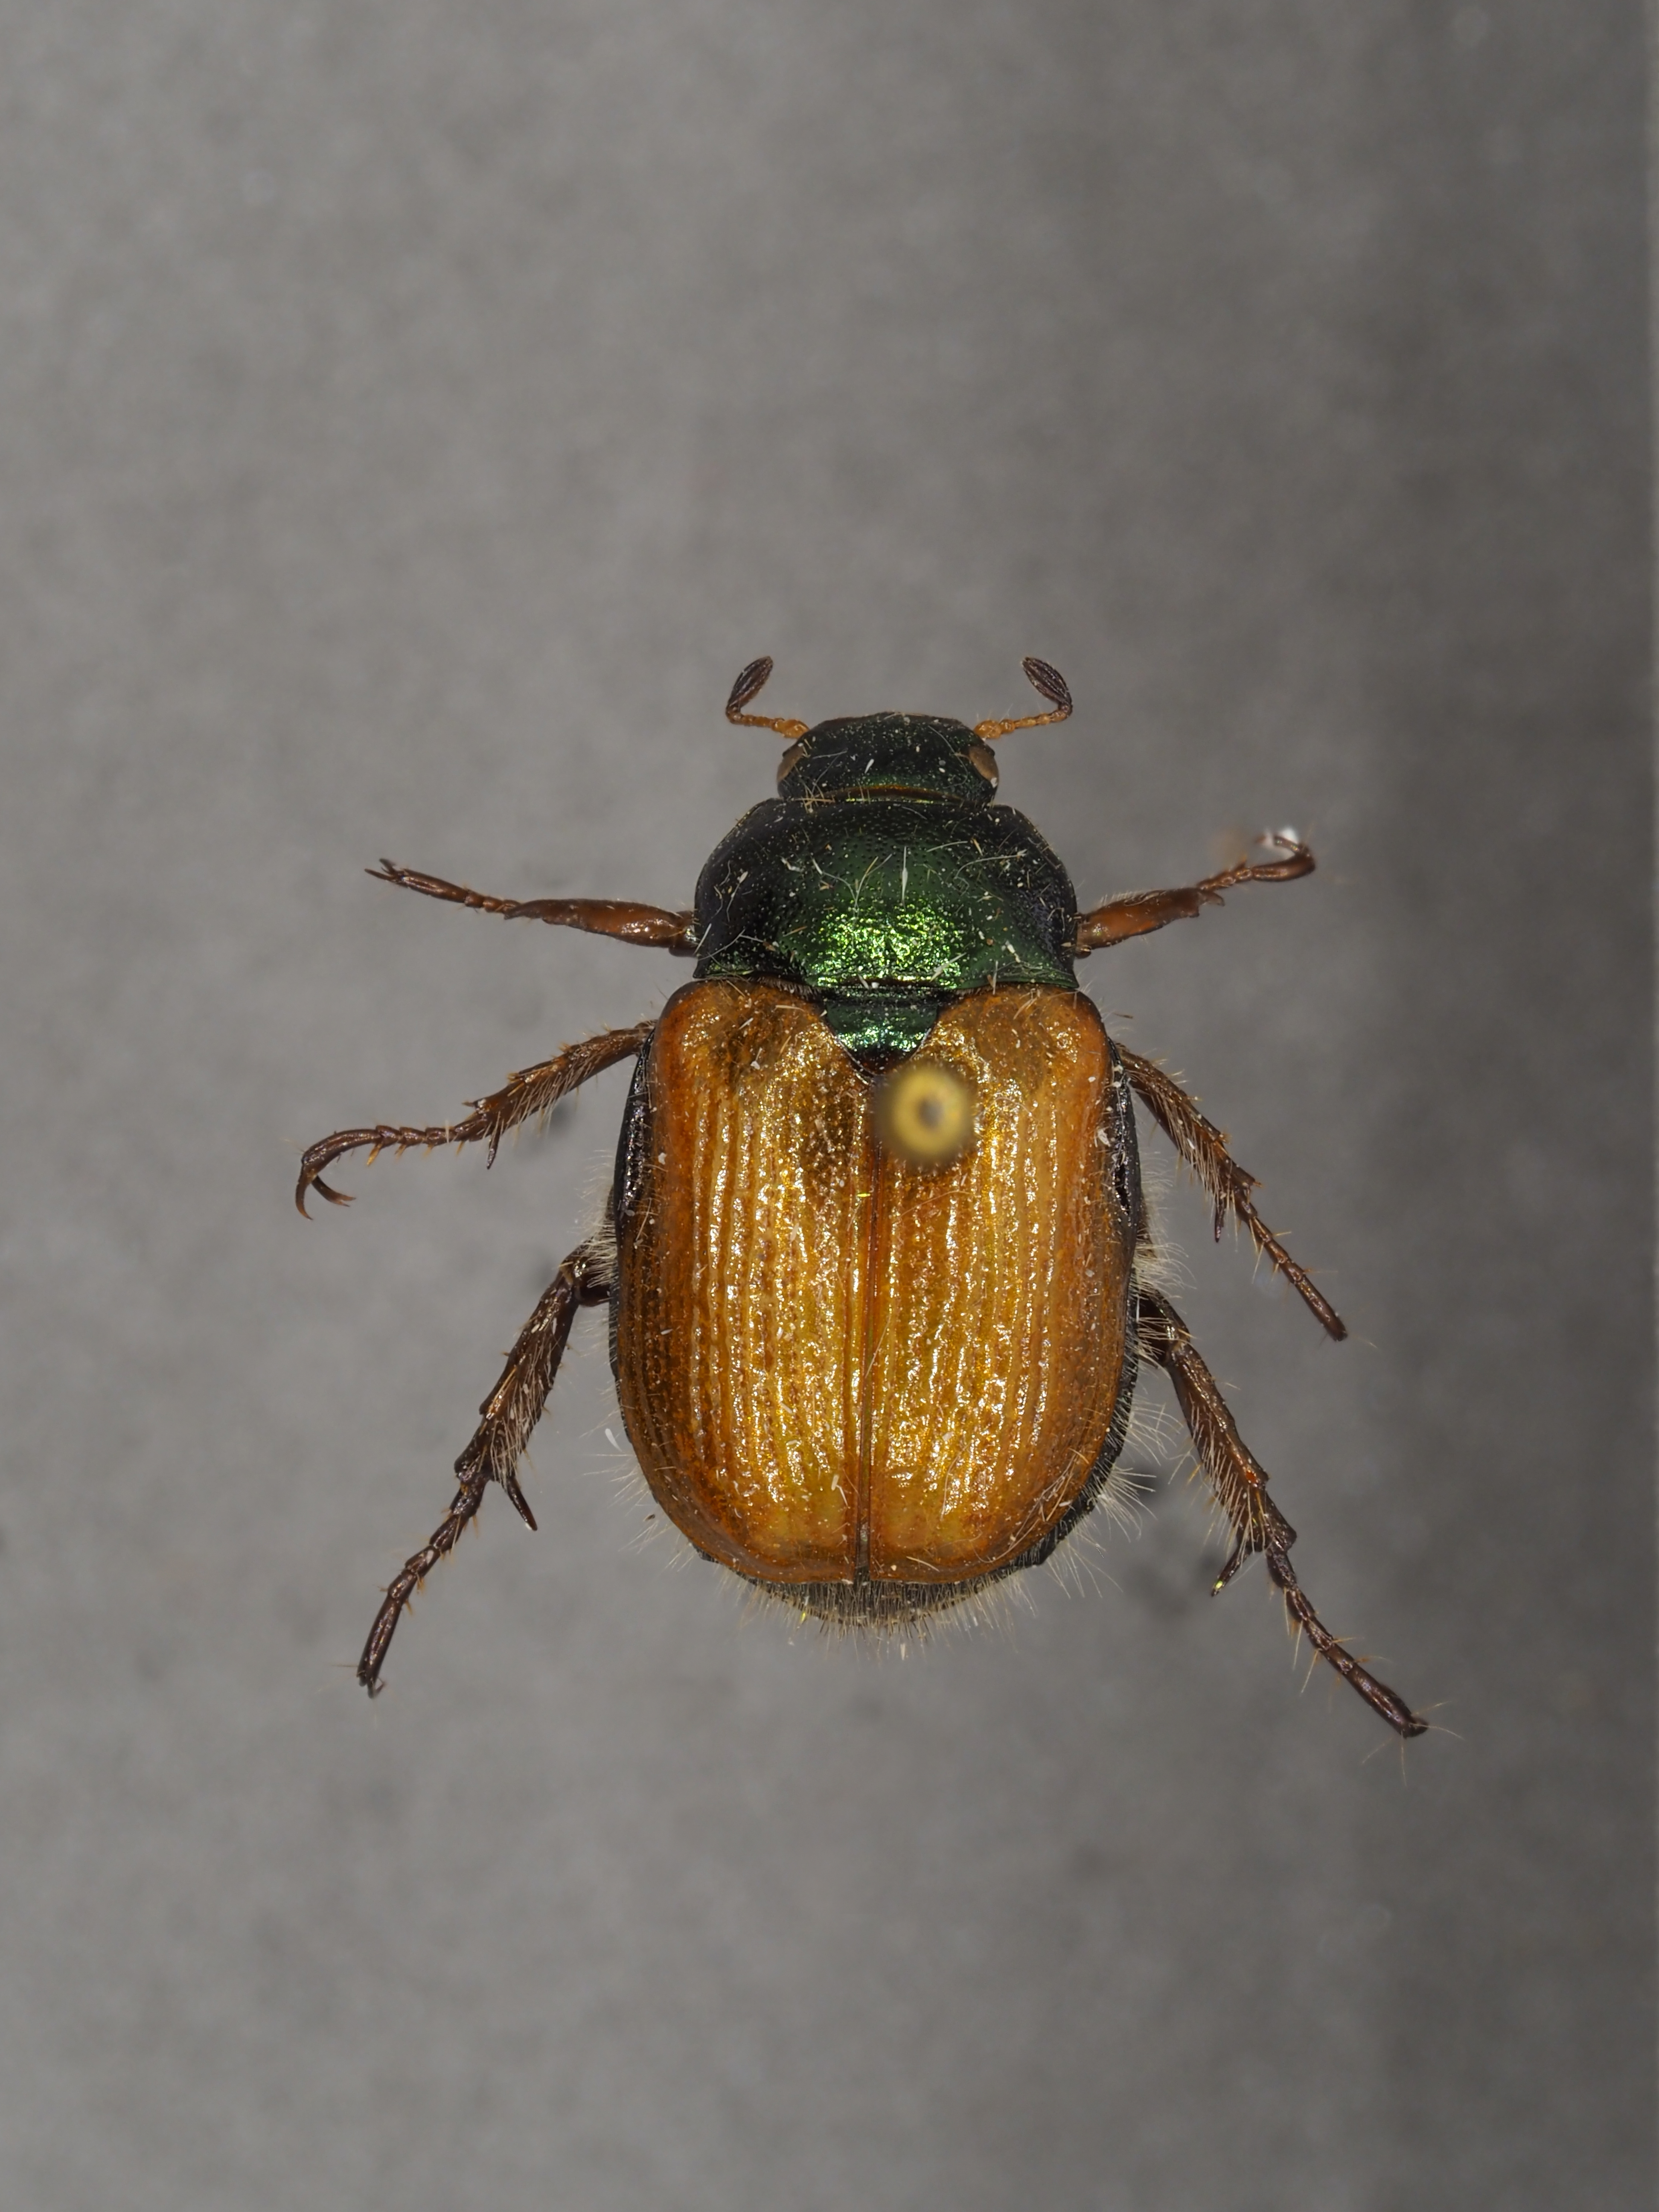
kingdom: Animalia
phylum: Arthropoda
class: Insecta
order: Coleoptera
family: Scarabaeidae
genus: Phyllopertha
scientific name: Phyllopertha horticola
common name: Garden chafer
